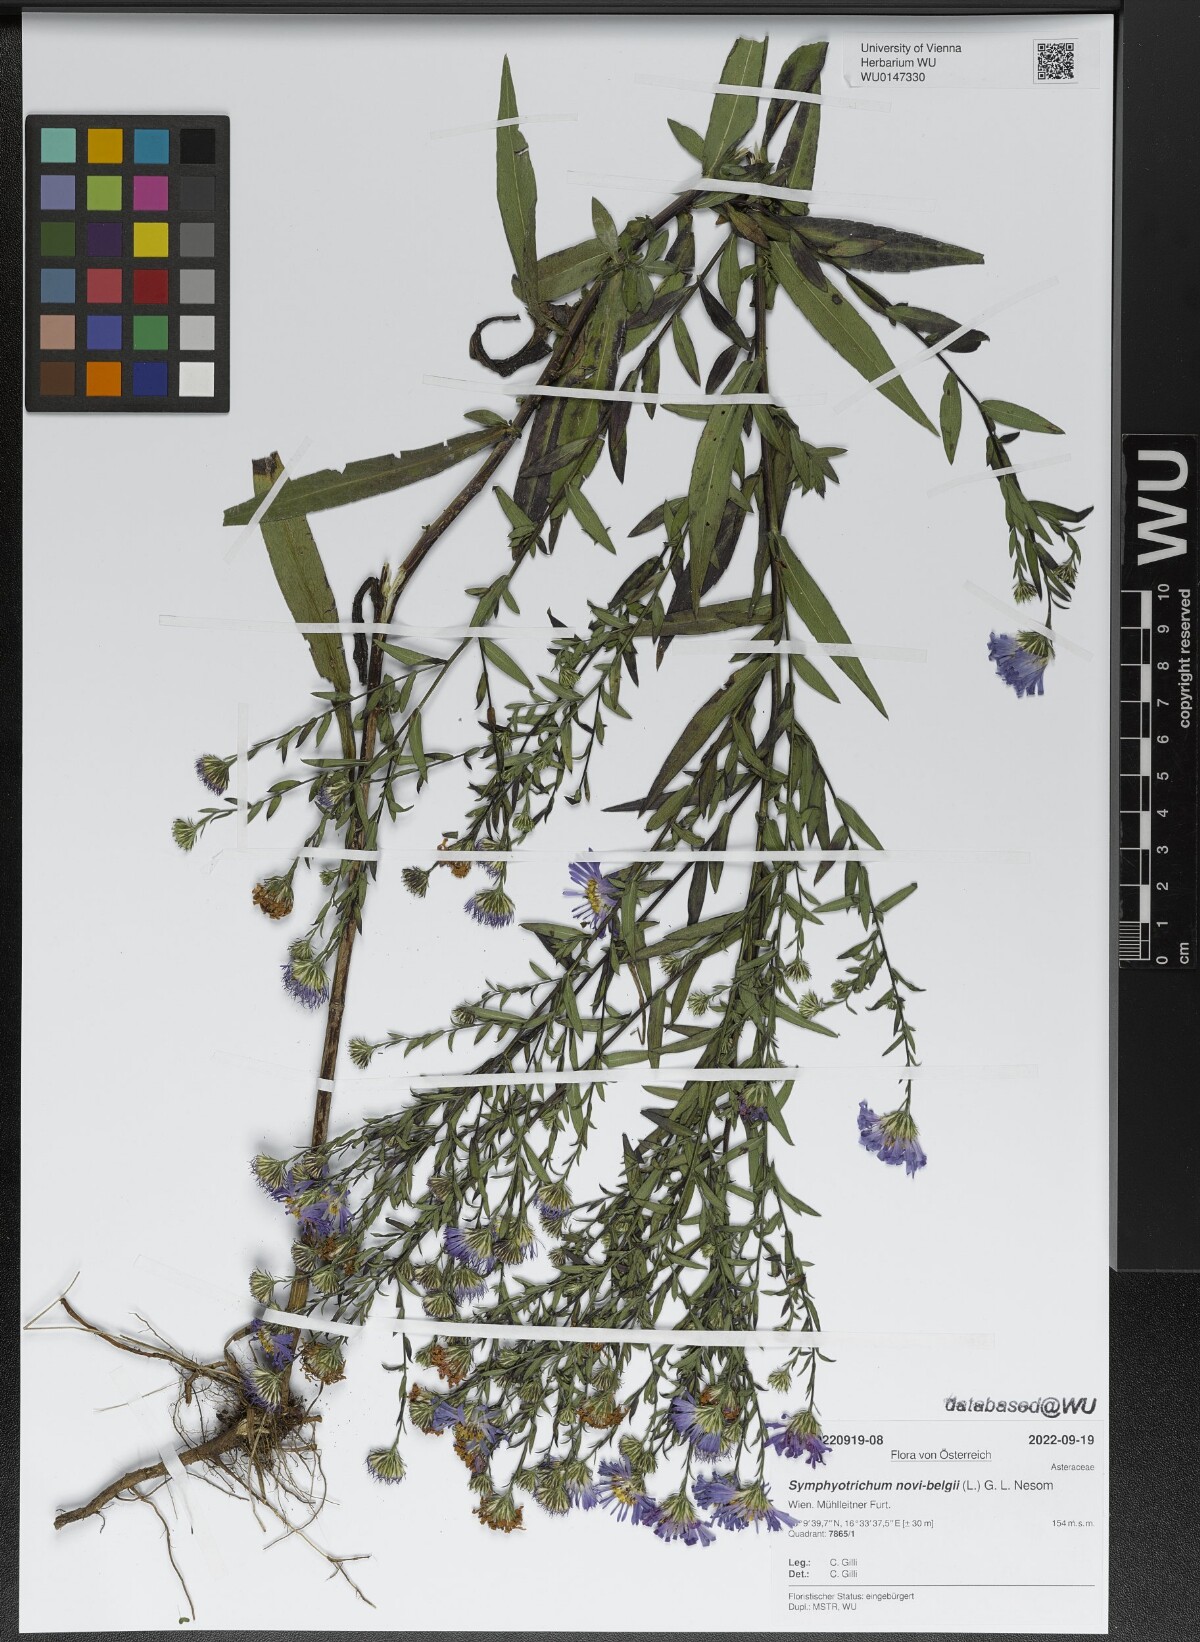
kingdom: Plantae
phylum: Tracheophyta
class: Magnoliopsida
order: Asterales
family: Asteraceae
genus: Symphyotrichum
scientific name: Symphyotrichum novi-belgii
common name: Michaelmas daisy
